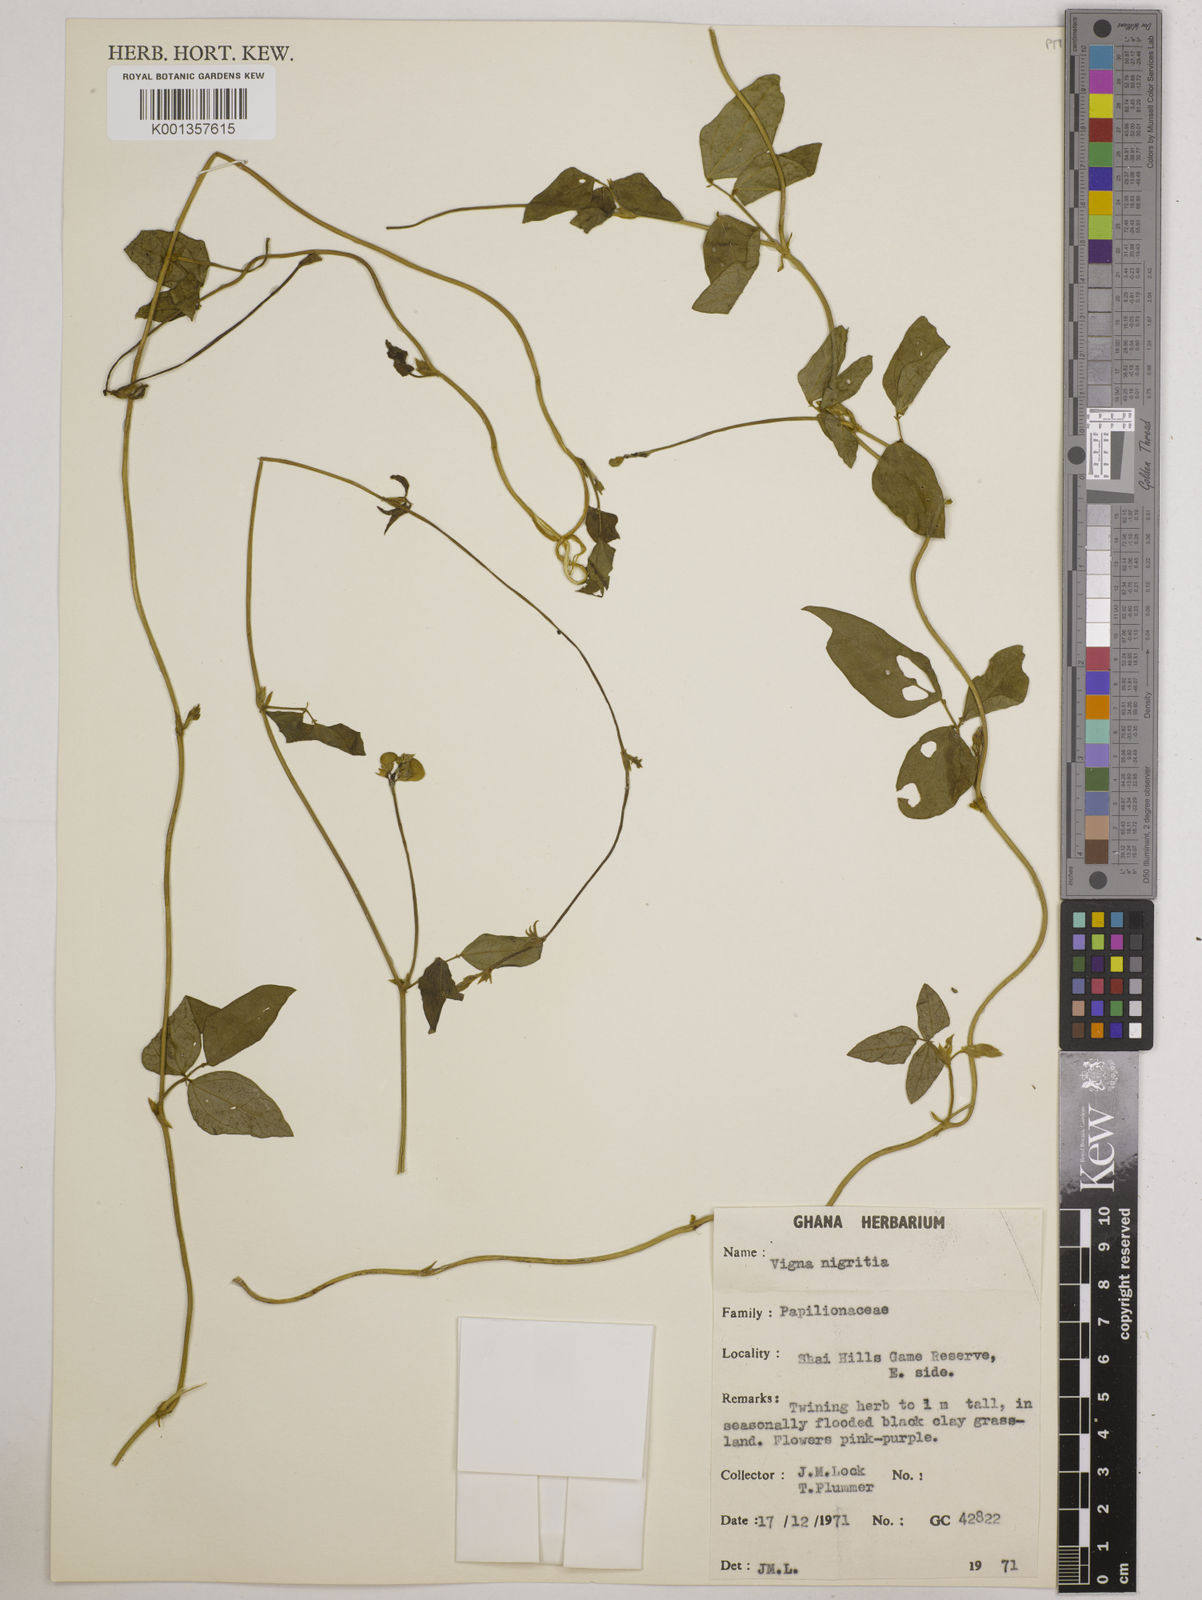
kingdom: Plantae
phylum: Tracheophyta
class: Magnoliopsida
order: Fabales
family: Fabaceae
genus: Vigna
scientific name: Vigna nigritia
